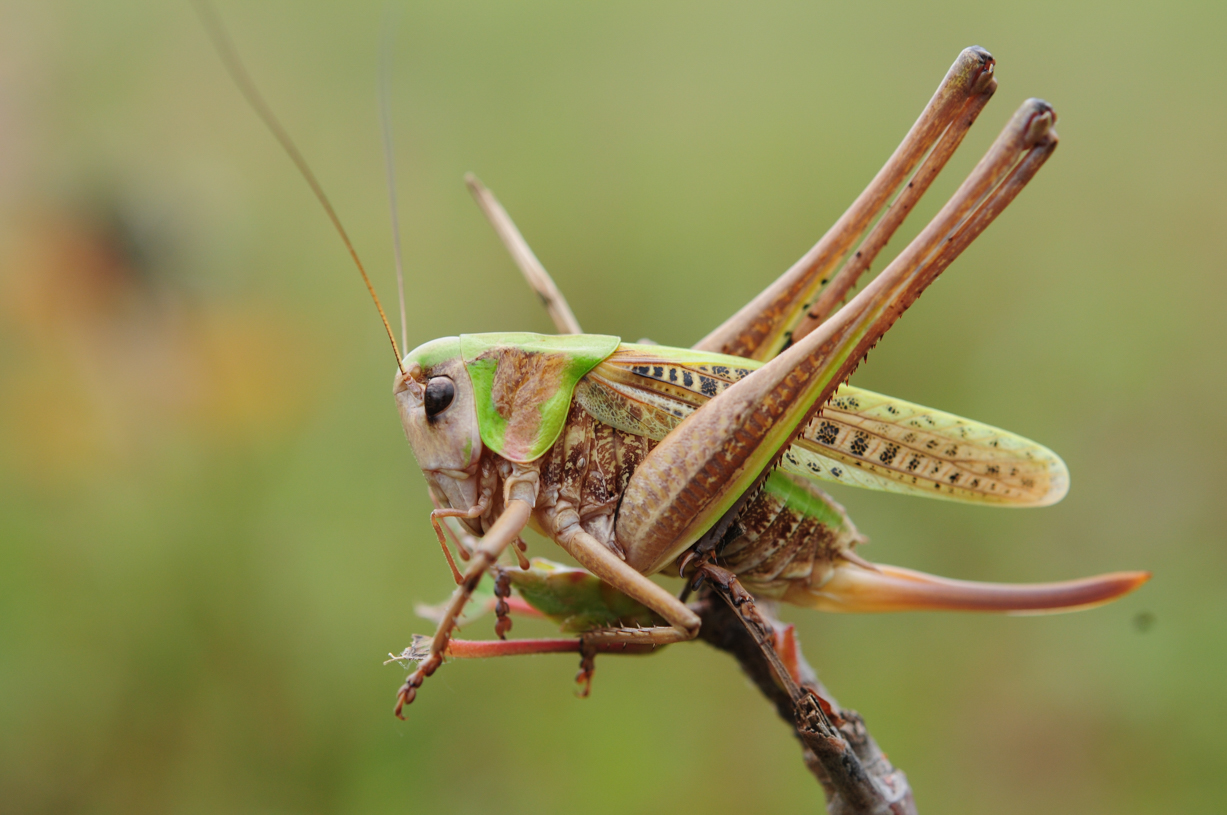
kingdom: Animalia
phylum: Arthropoda
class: Insecta
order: Orthoptera
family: Tettigoniidae
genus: Decticus
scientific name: Decticus verrucivorus
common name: Wart-biter
